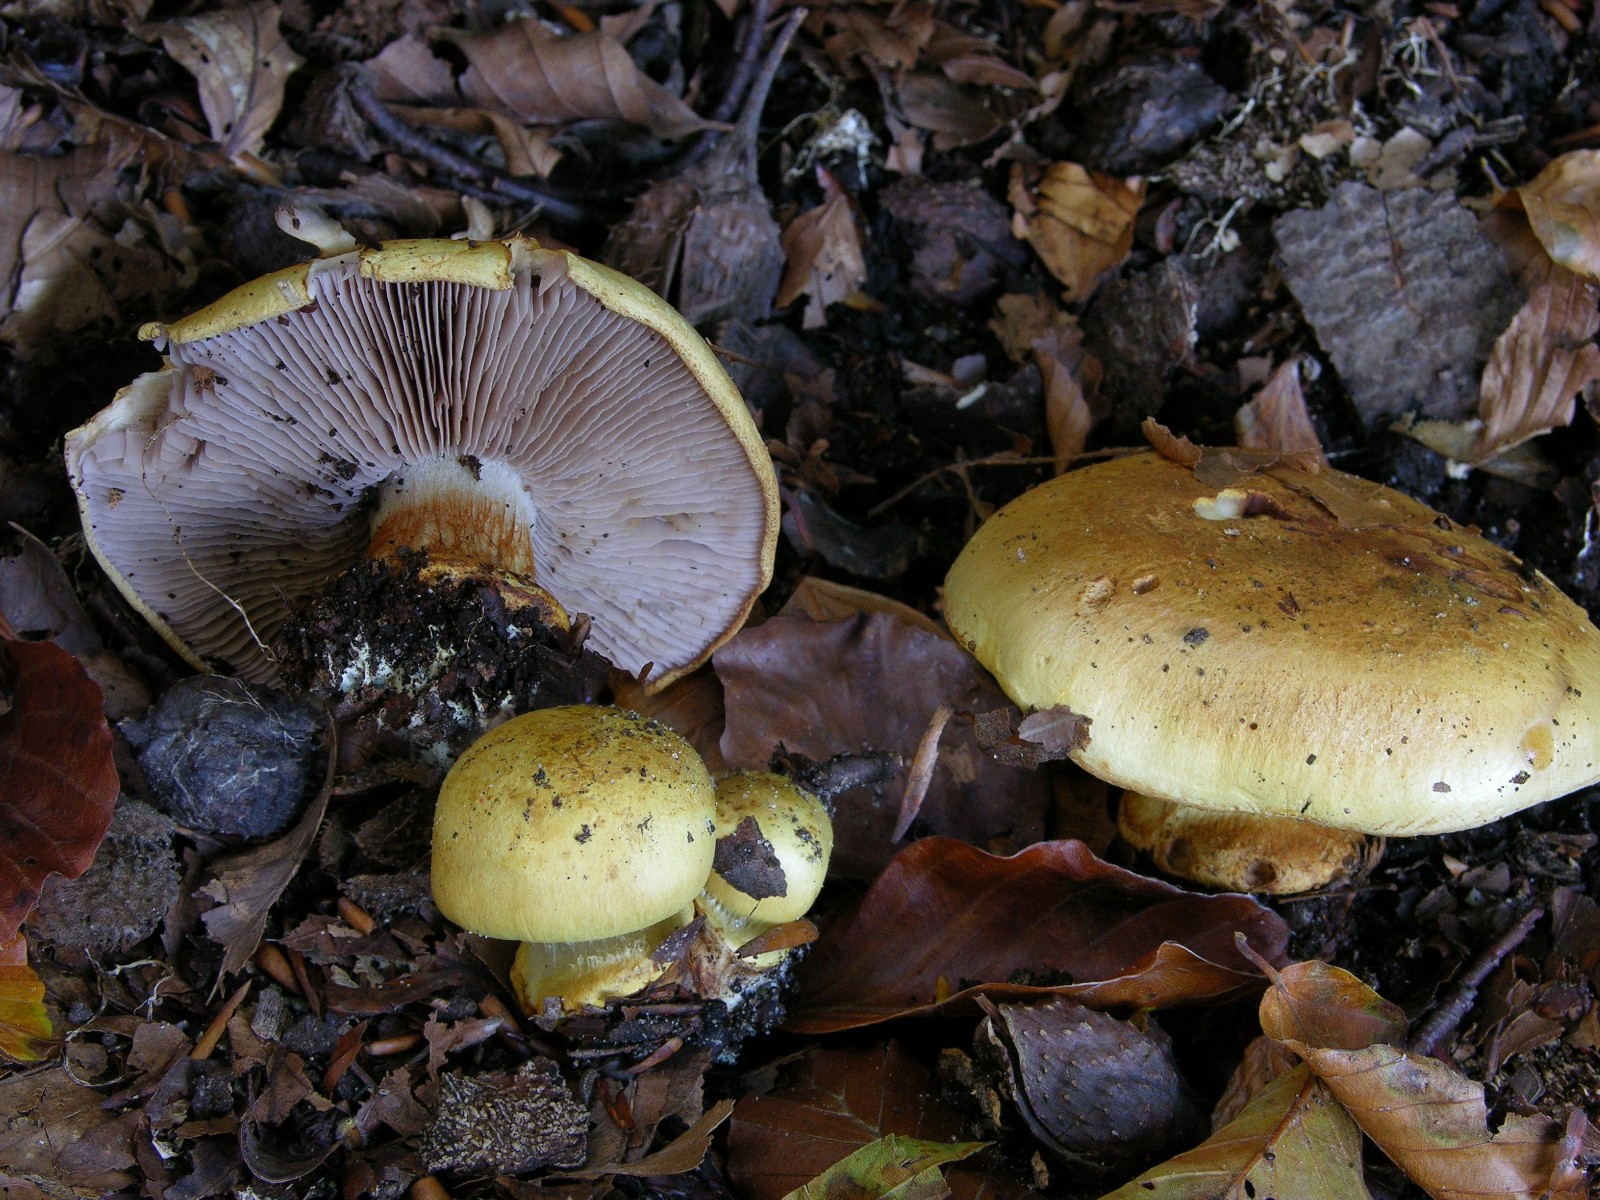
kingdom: Fungi
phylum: Basidiomycota
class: Agaricomycetes
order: Agaricales
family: Cortinariaceae
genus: Calonarius
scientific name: Calonarius callochrous
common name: lillabladet slørhat
